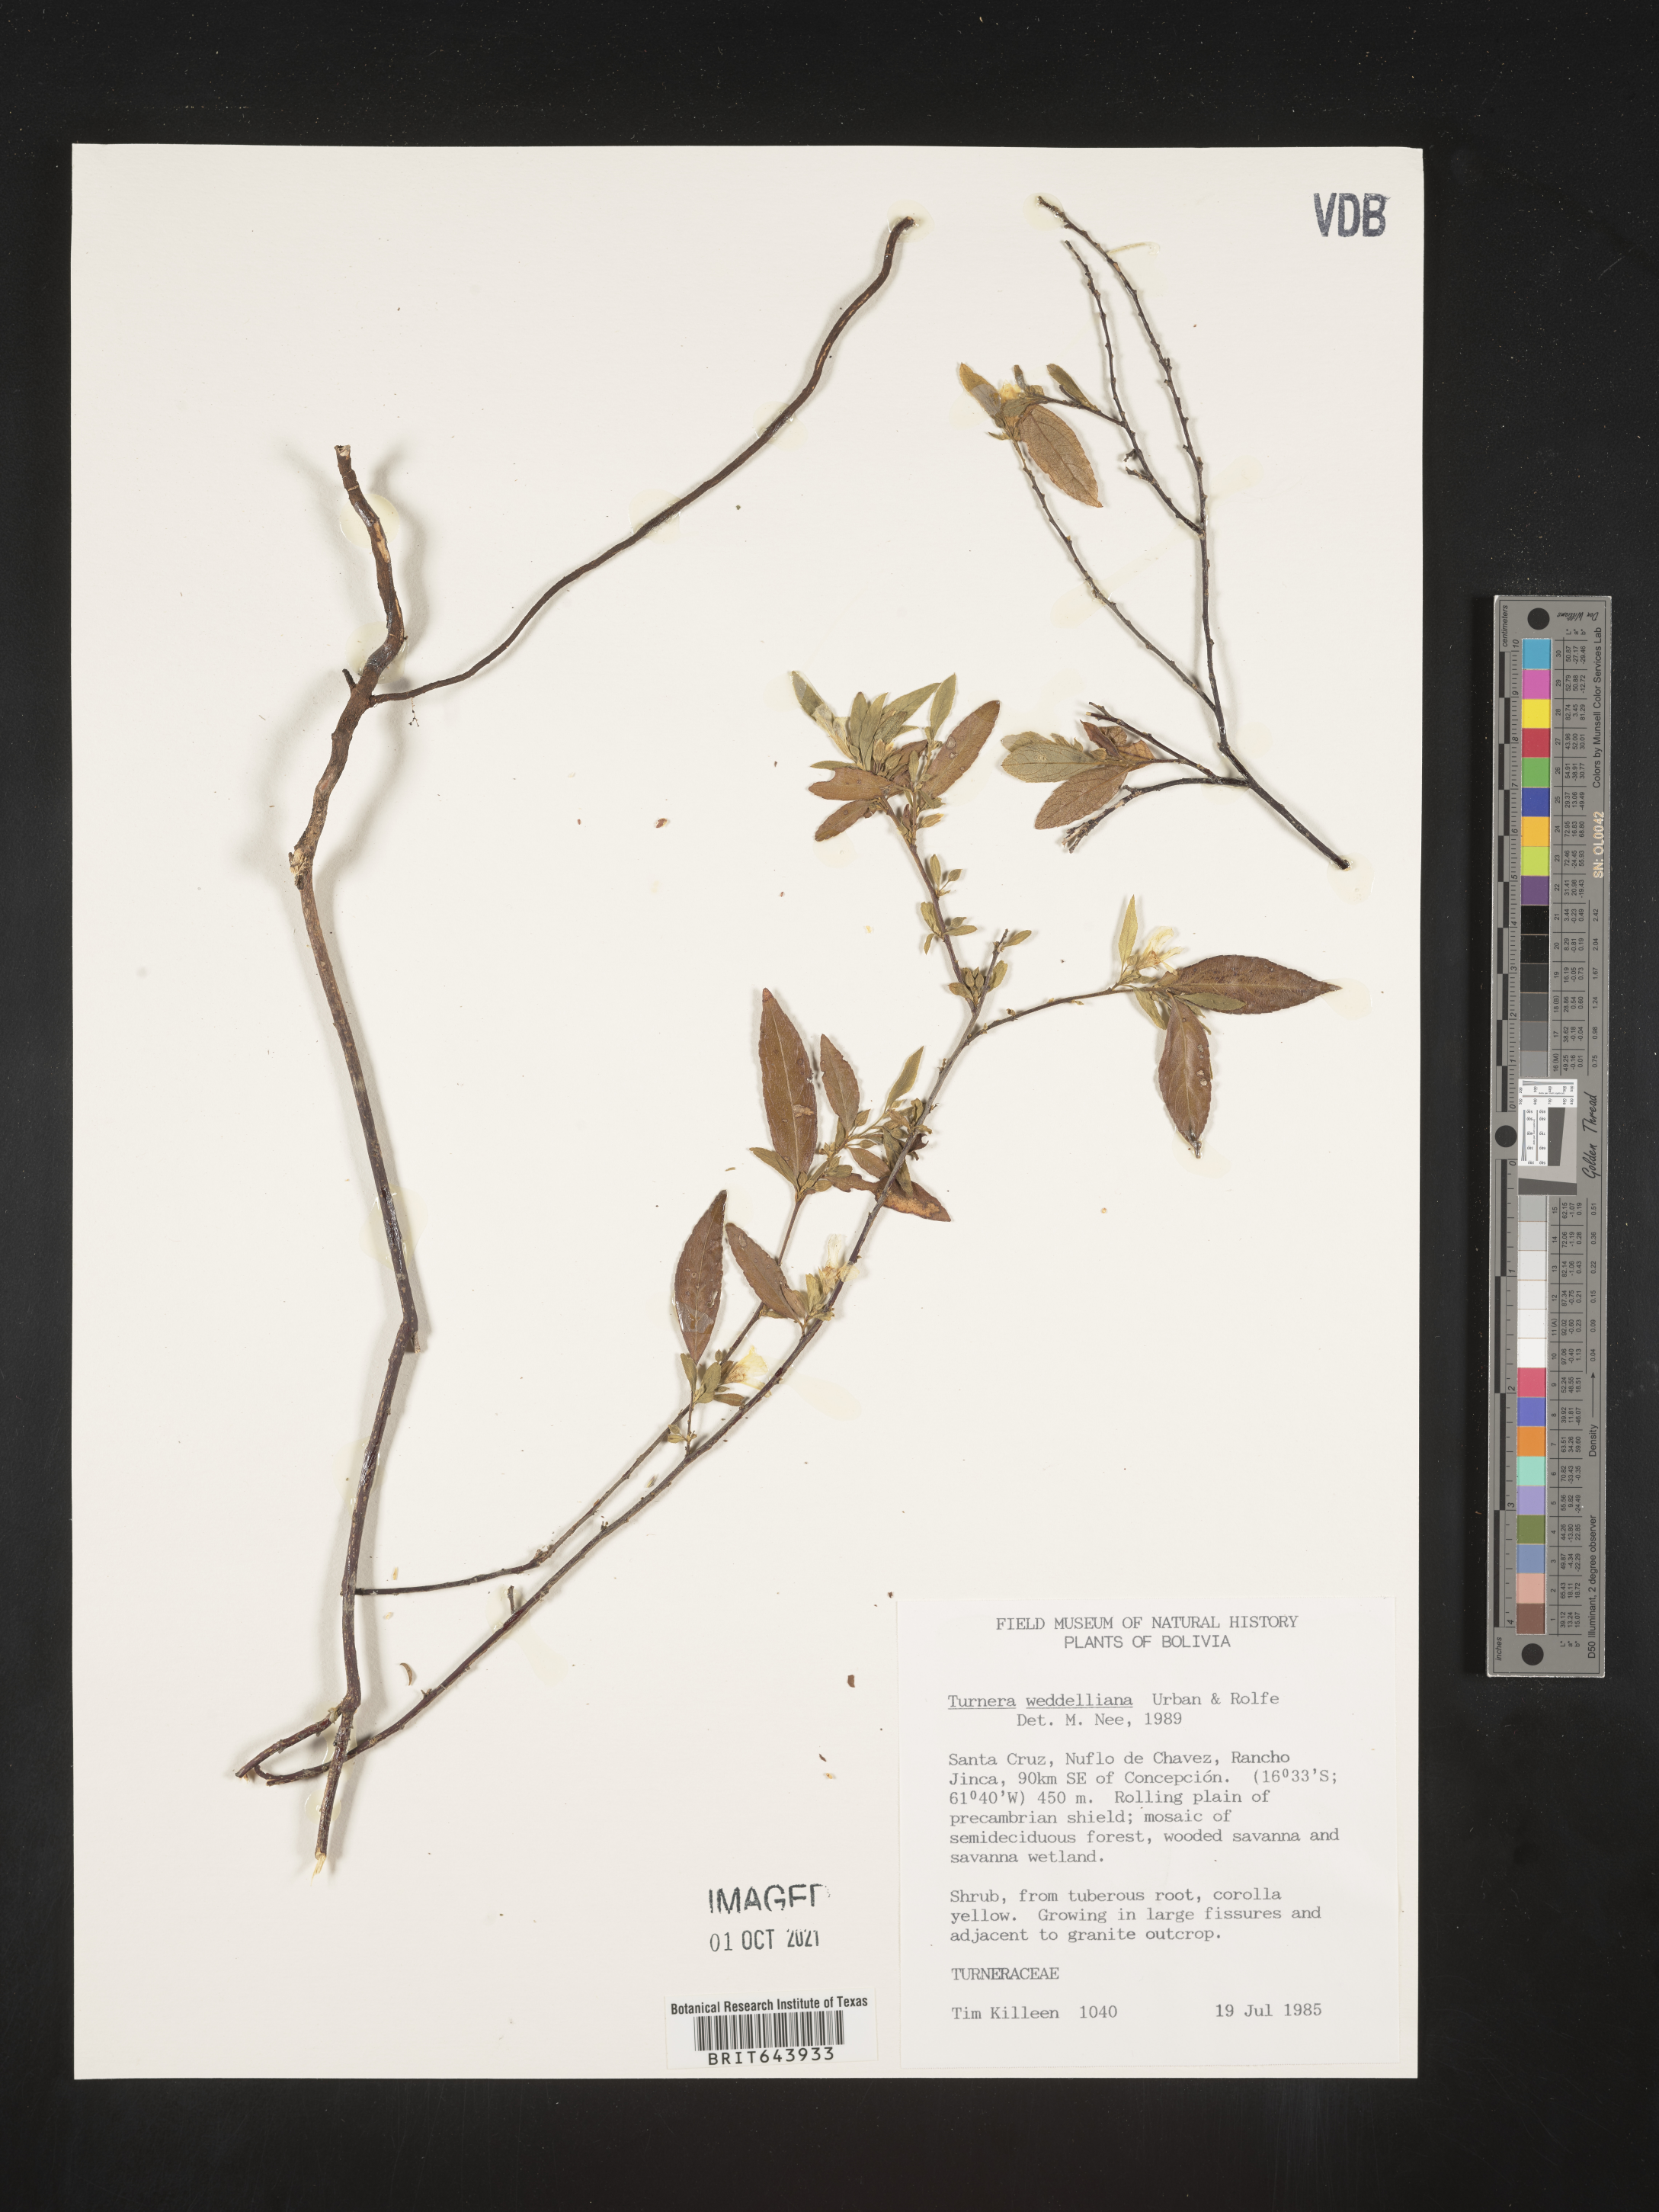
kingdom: Plantae
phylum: Tracheophyta
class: Magnoliopsida
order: Malpighiales
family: Turneraceae
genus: Turnera
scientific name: Turnera
